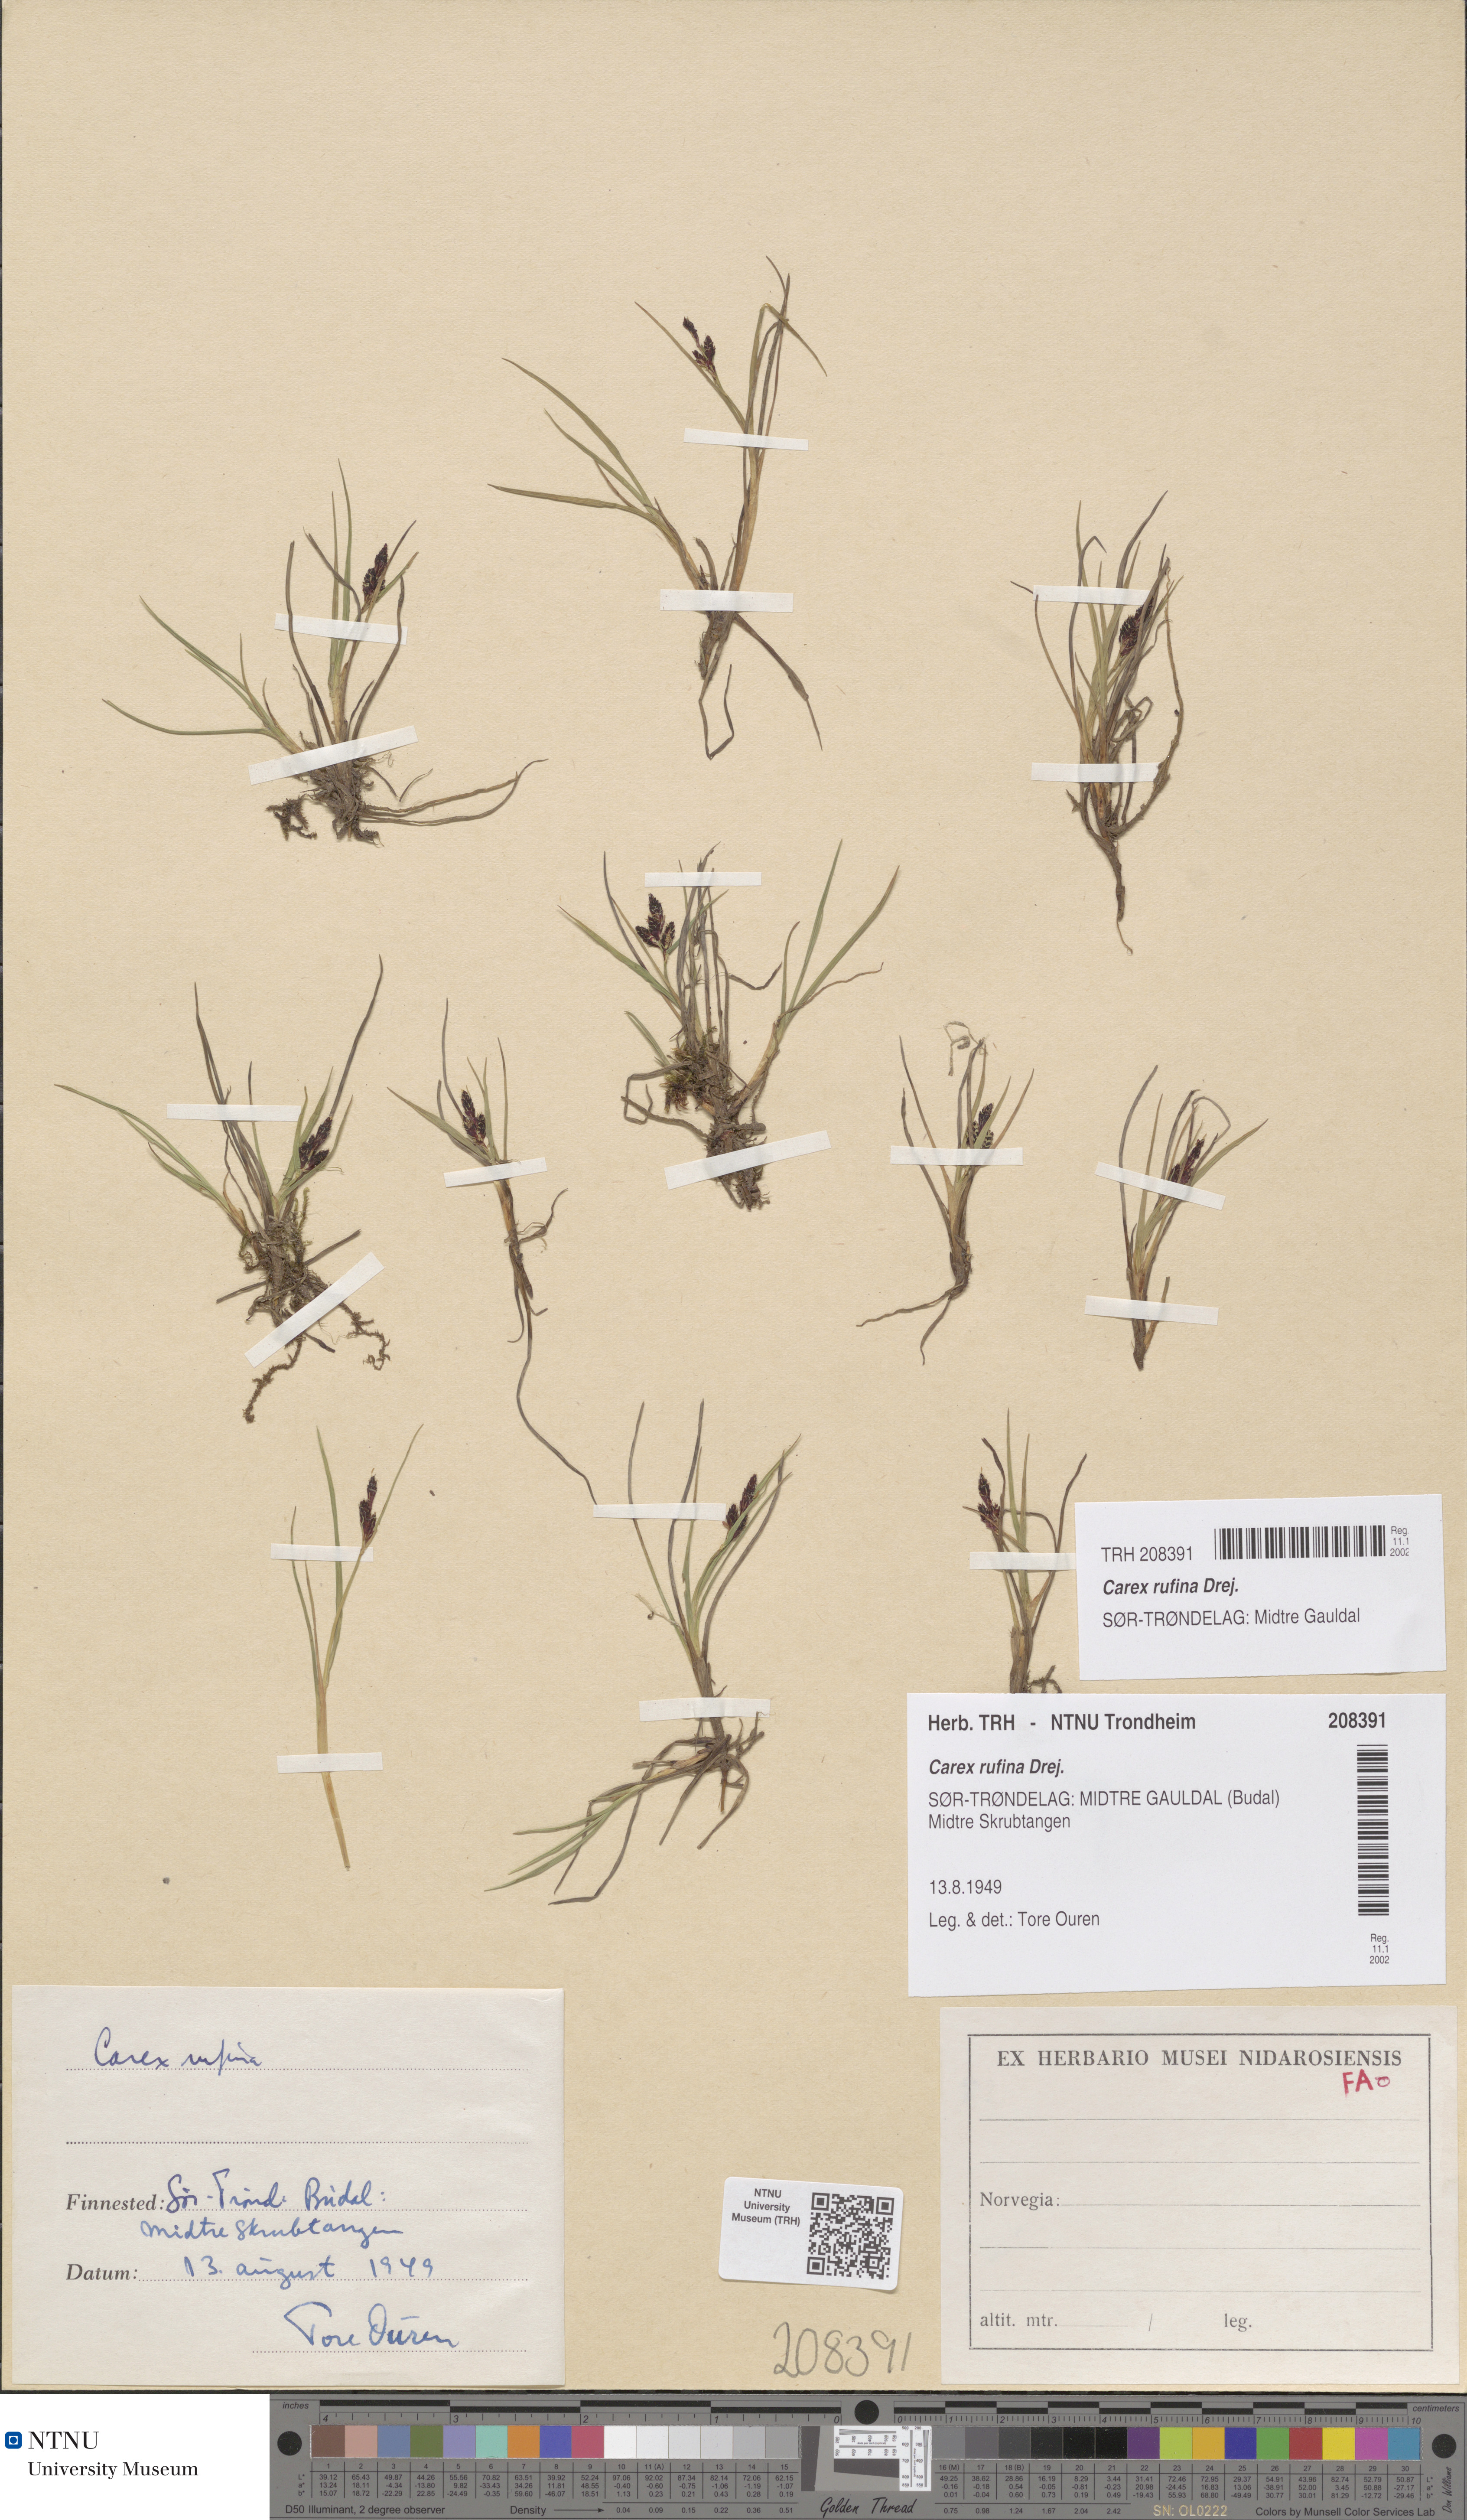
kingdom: Plantae
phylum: Tracheophyta
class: Liliopsida
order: Poales
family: Cyperaceae
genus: Carex
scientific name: Carex rufina
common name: Reddish sedge
